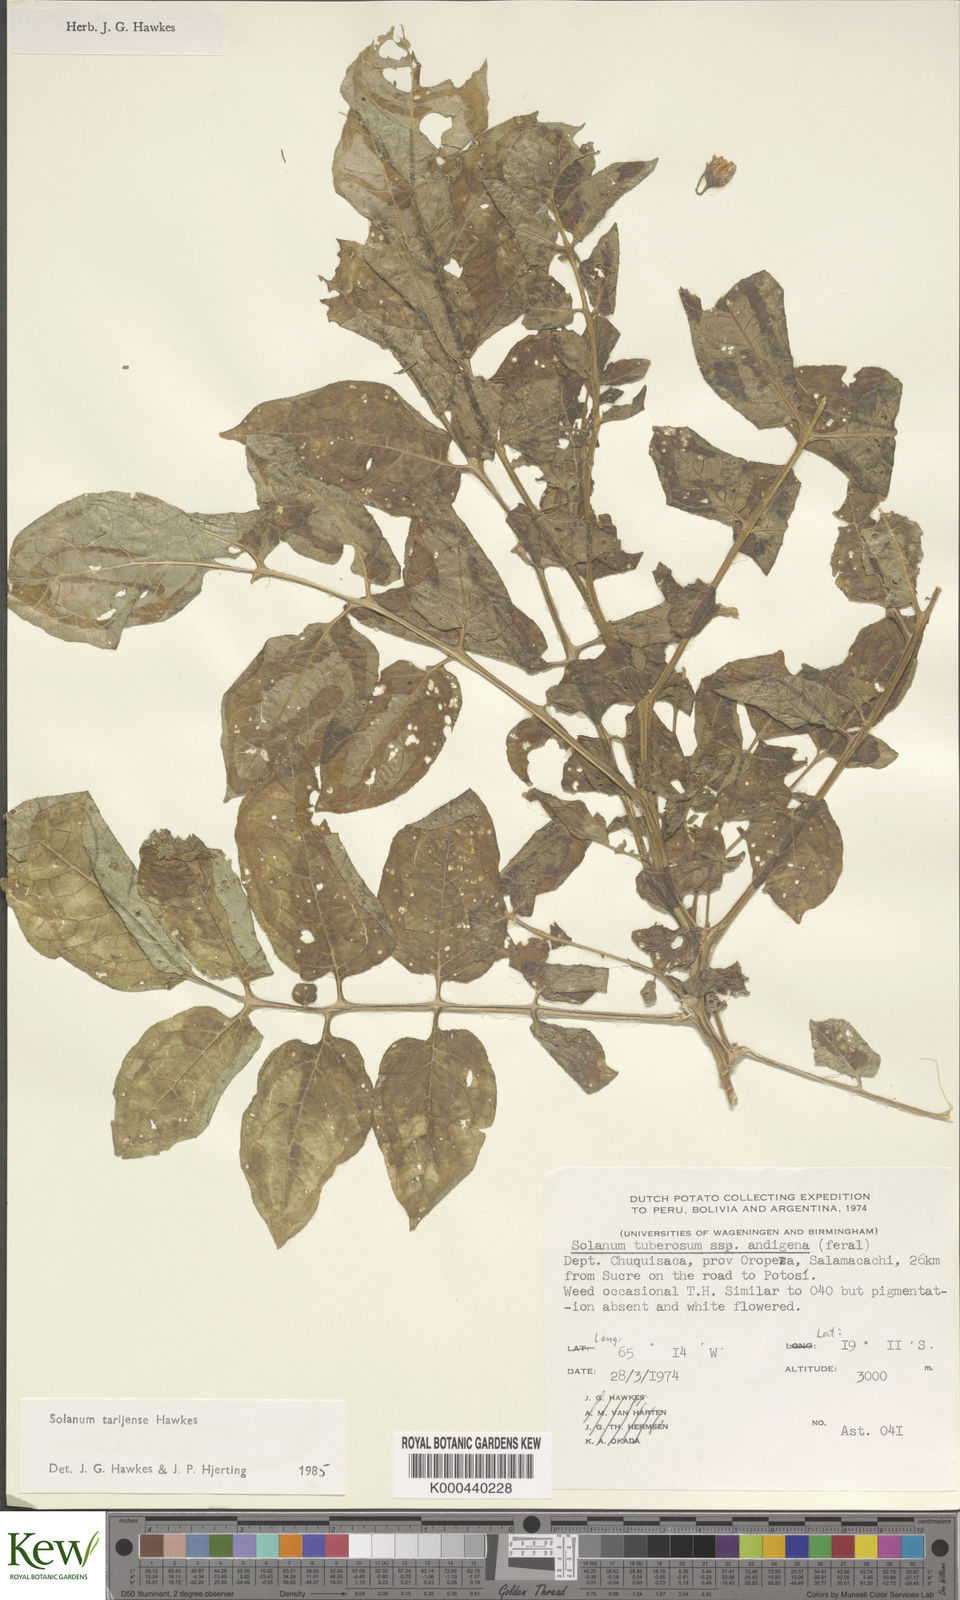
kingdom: Plantae
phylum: Tracheophyta
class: Magnoliopsida
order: Solanales
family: Solanaceae
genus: Solanum
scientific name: Solanum tarijense
